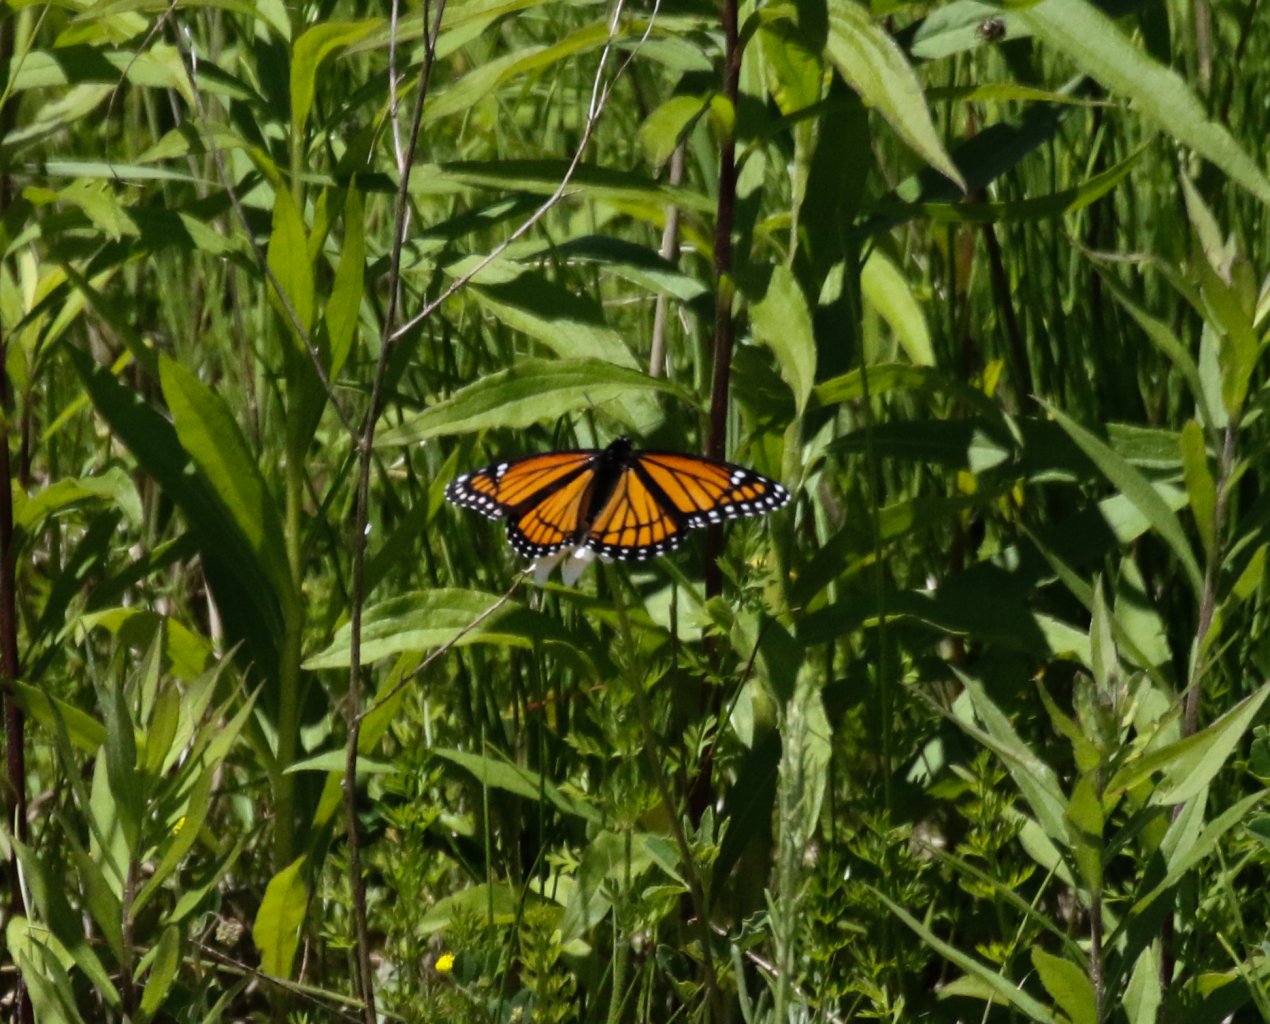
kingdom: Animalia
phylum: Arthropoda
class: Insecta
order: Lepidoptera
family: Nymphalidae
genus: Limenitis
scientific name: Limenitis archippus
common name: Viceroy
